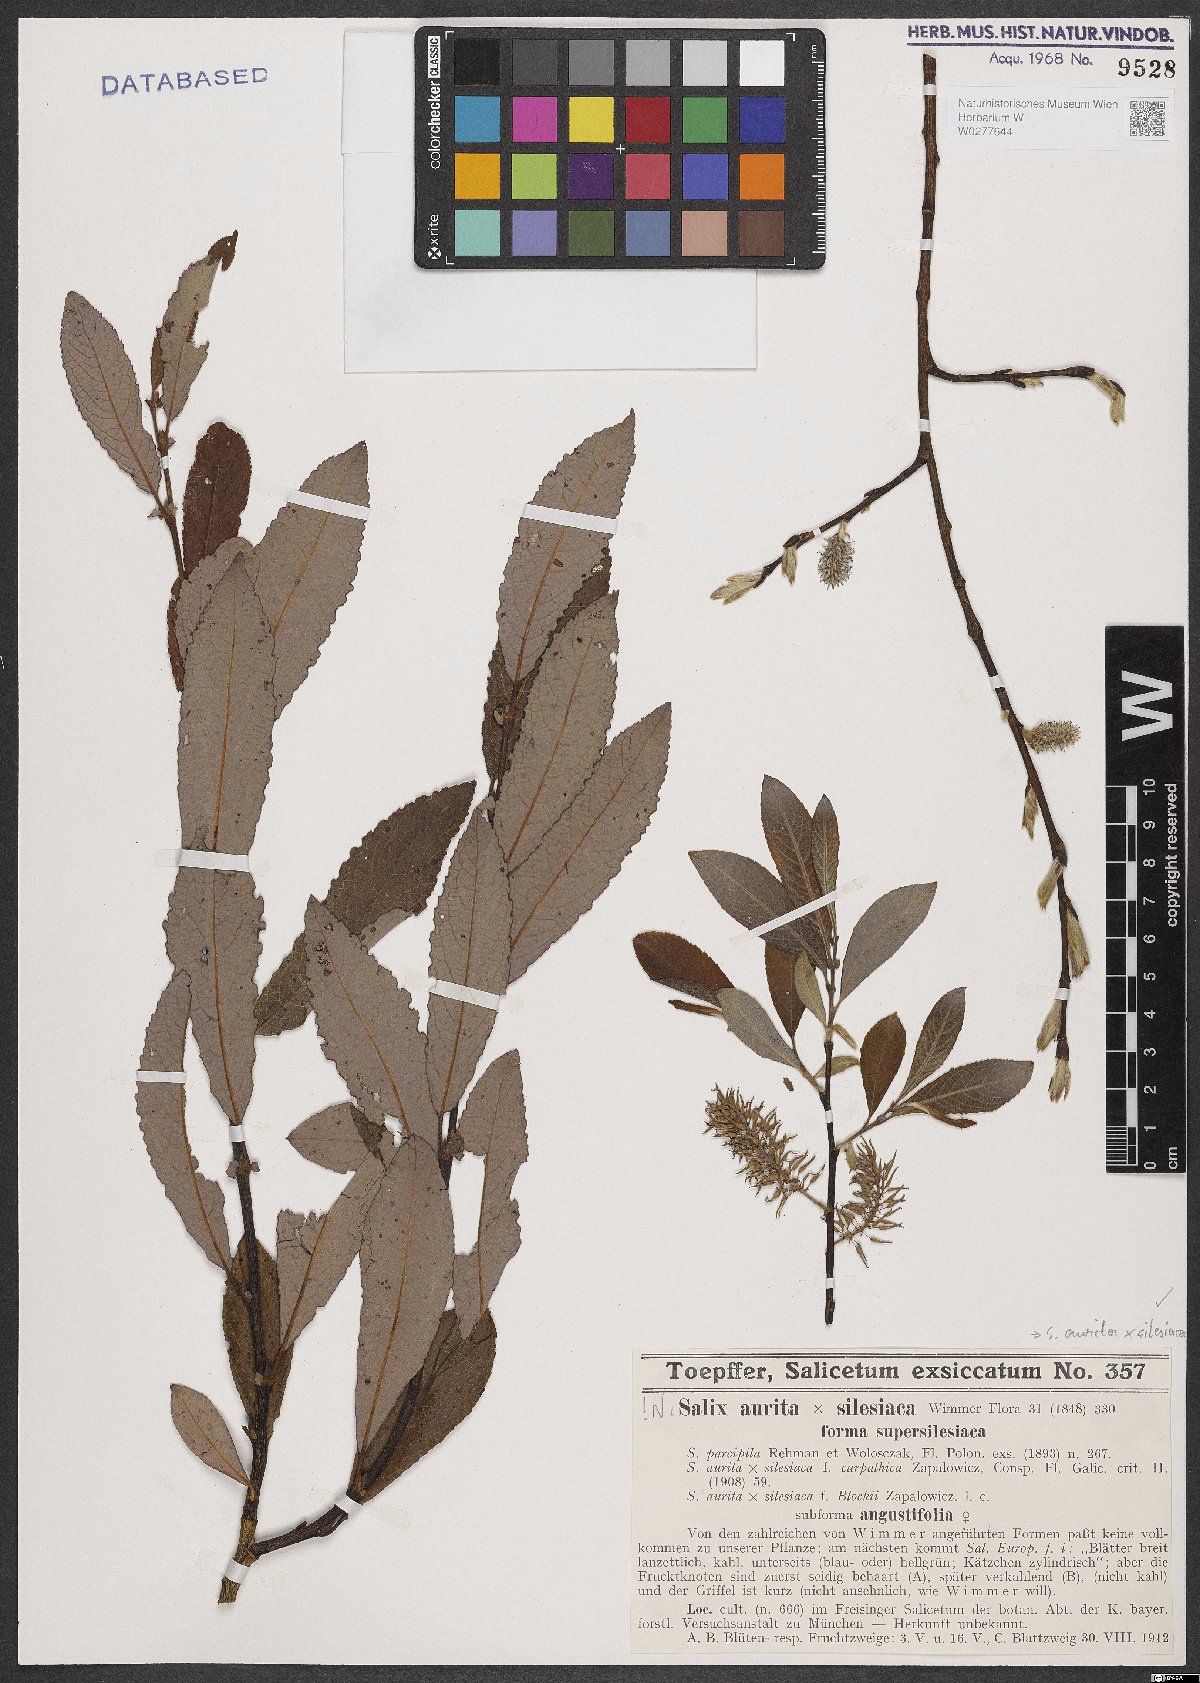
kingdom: Plantae
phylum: Tracheophyta
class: Magnoliopsida
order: Malpighiales
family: Salicaceae
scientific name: Salicaceae
